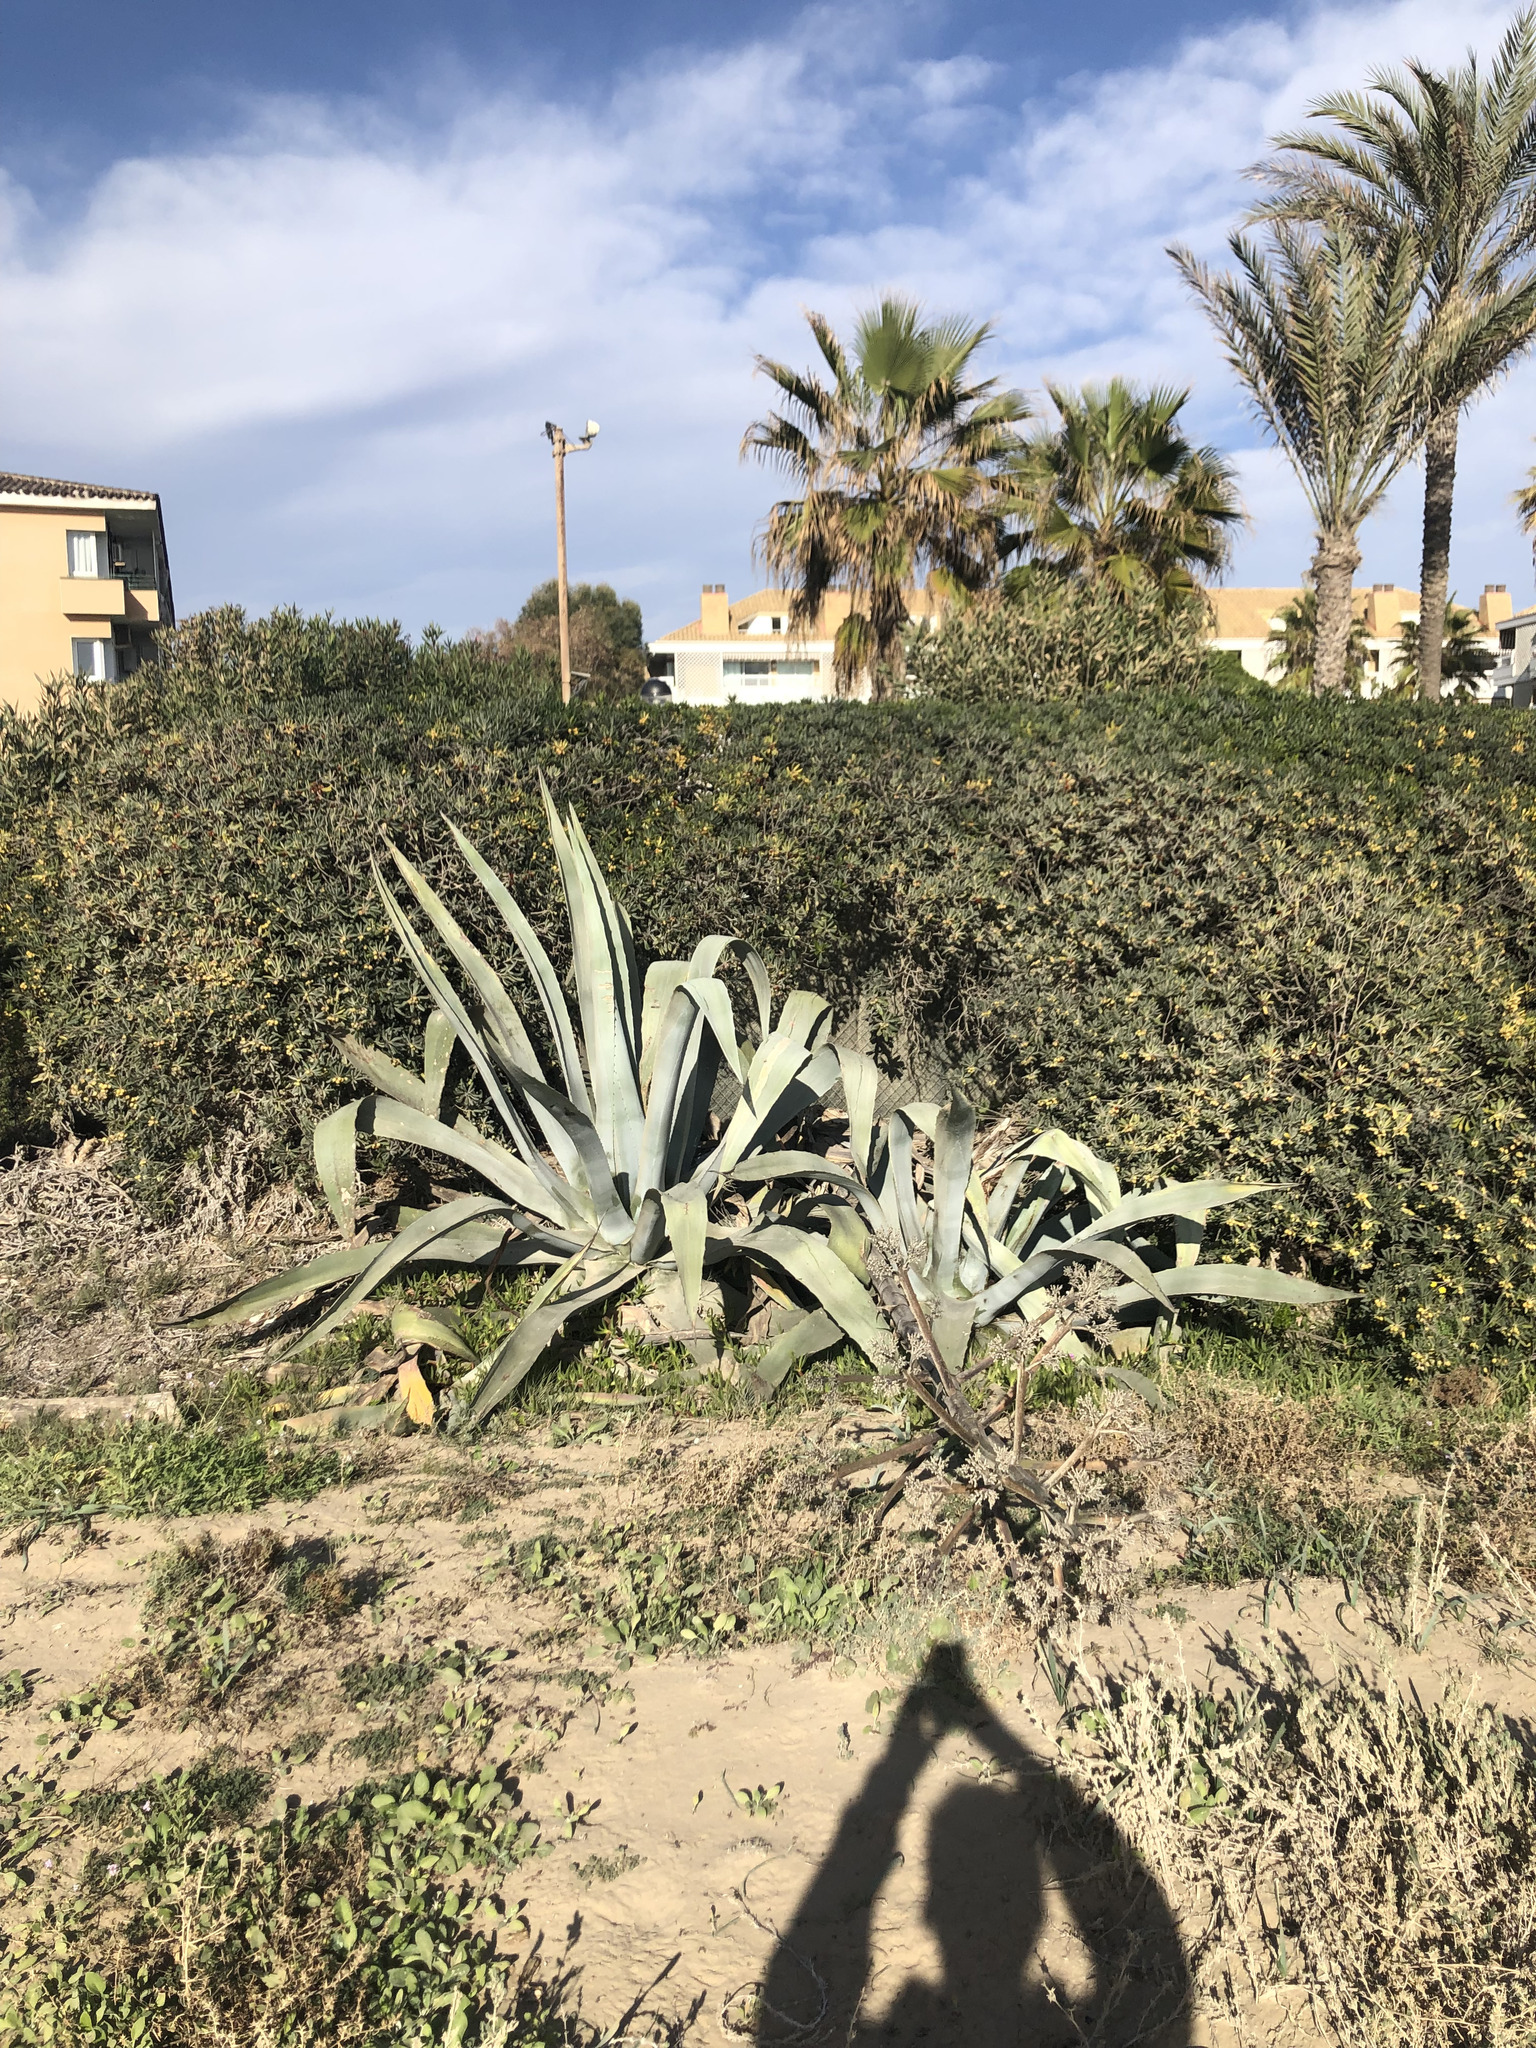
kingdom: Plantae
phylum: Tracheophyta
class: Liliopsida
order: Asparagales
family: Asparagaceae
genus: Agave
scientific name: Agave americana
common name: Centuryplant
